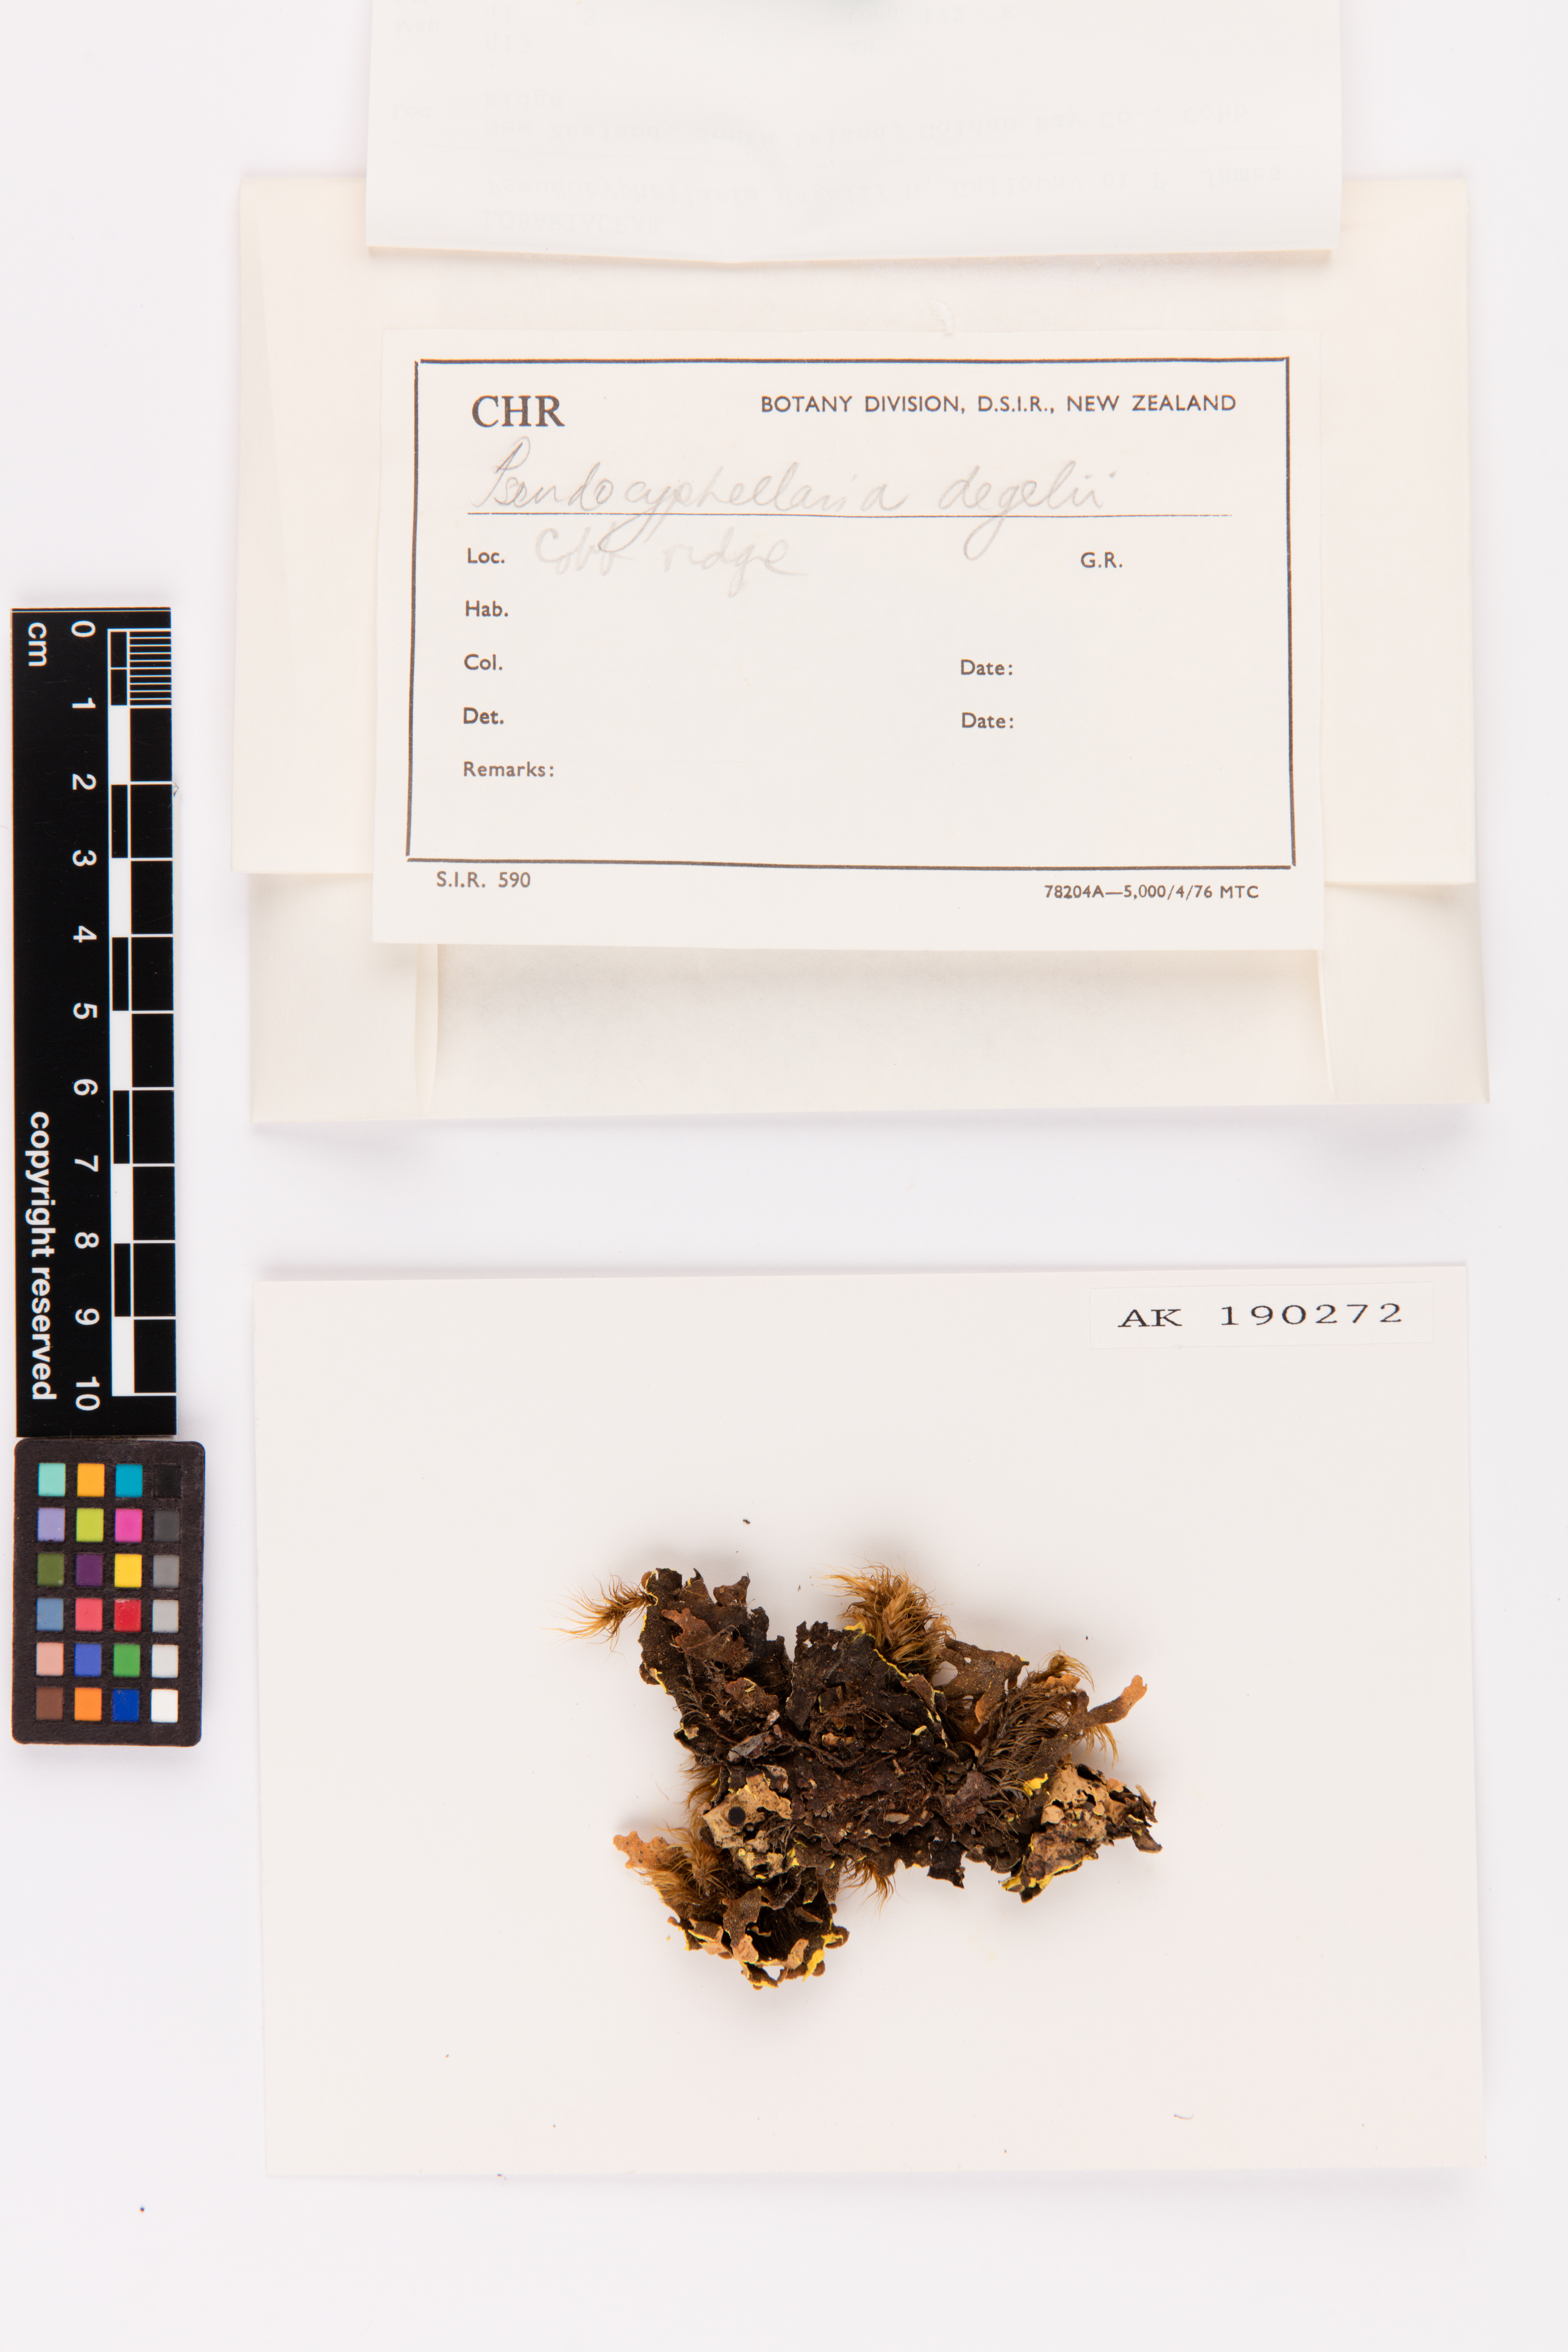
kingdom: Fungi
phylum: Ascomycota
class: Lecanoromycetes
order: Peltigerales
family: Lobariaceae
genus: Podostictina
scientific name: Podostictina degelii
